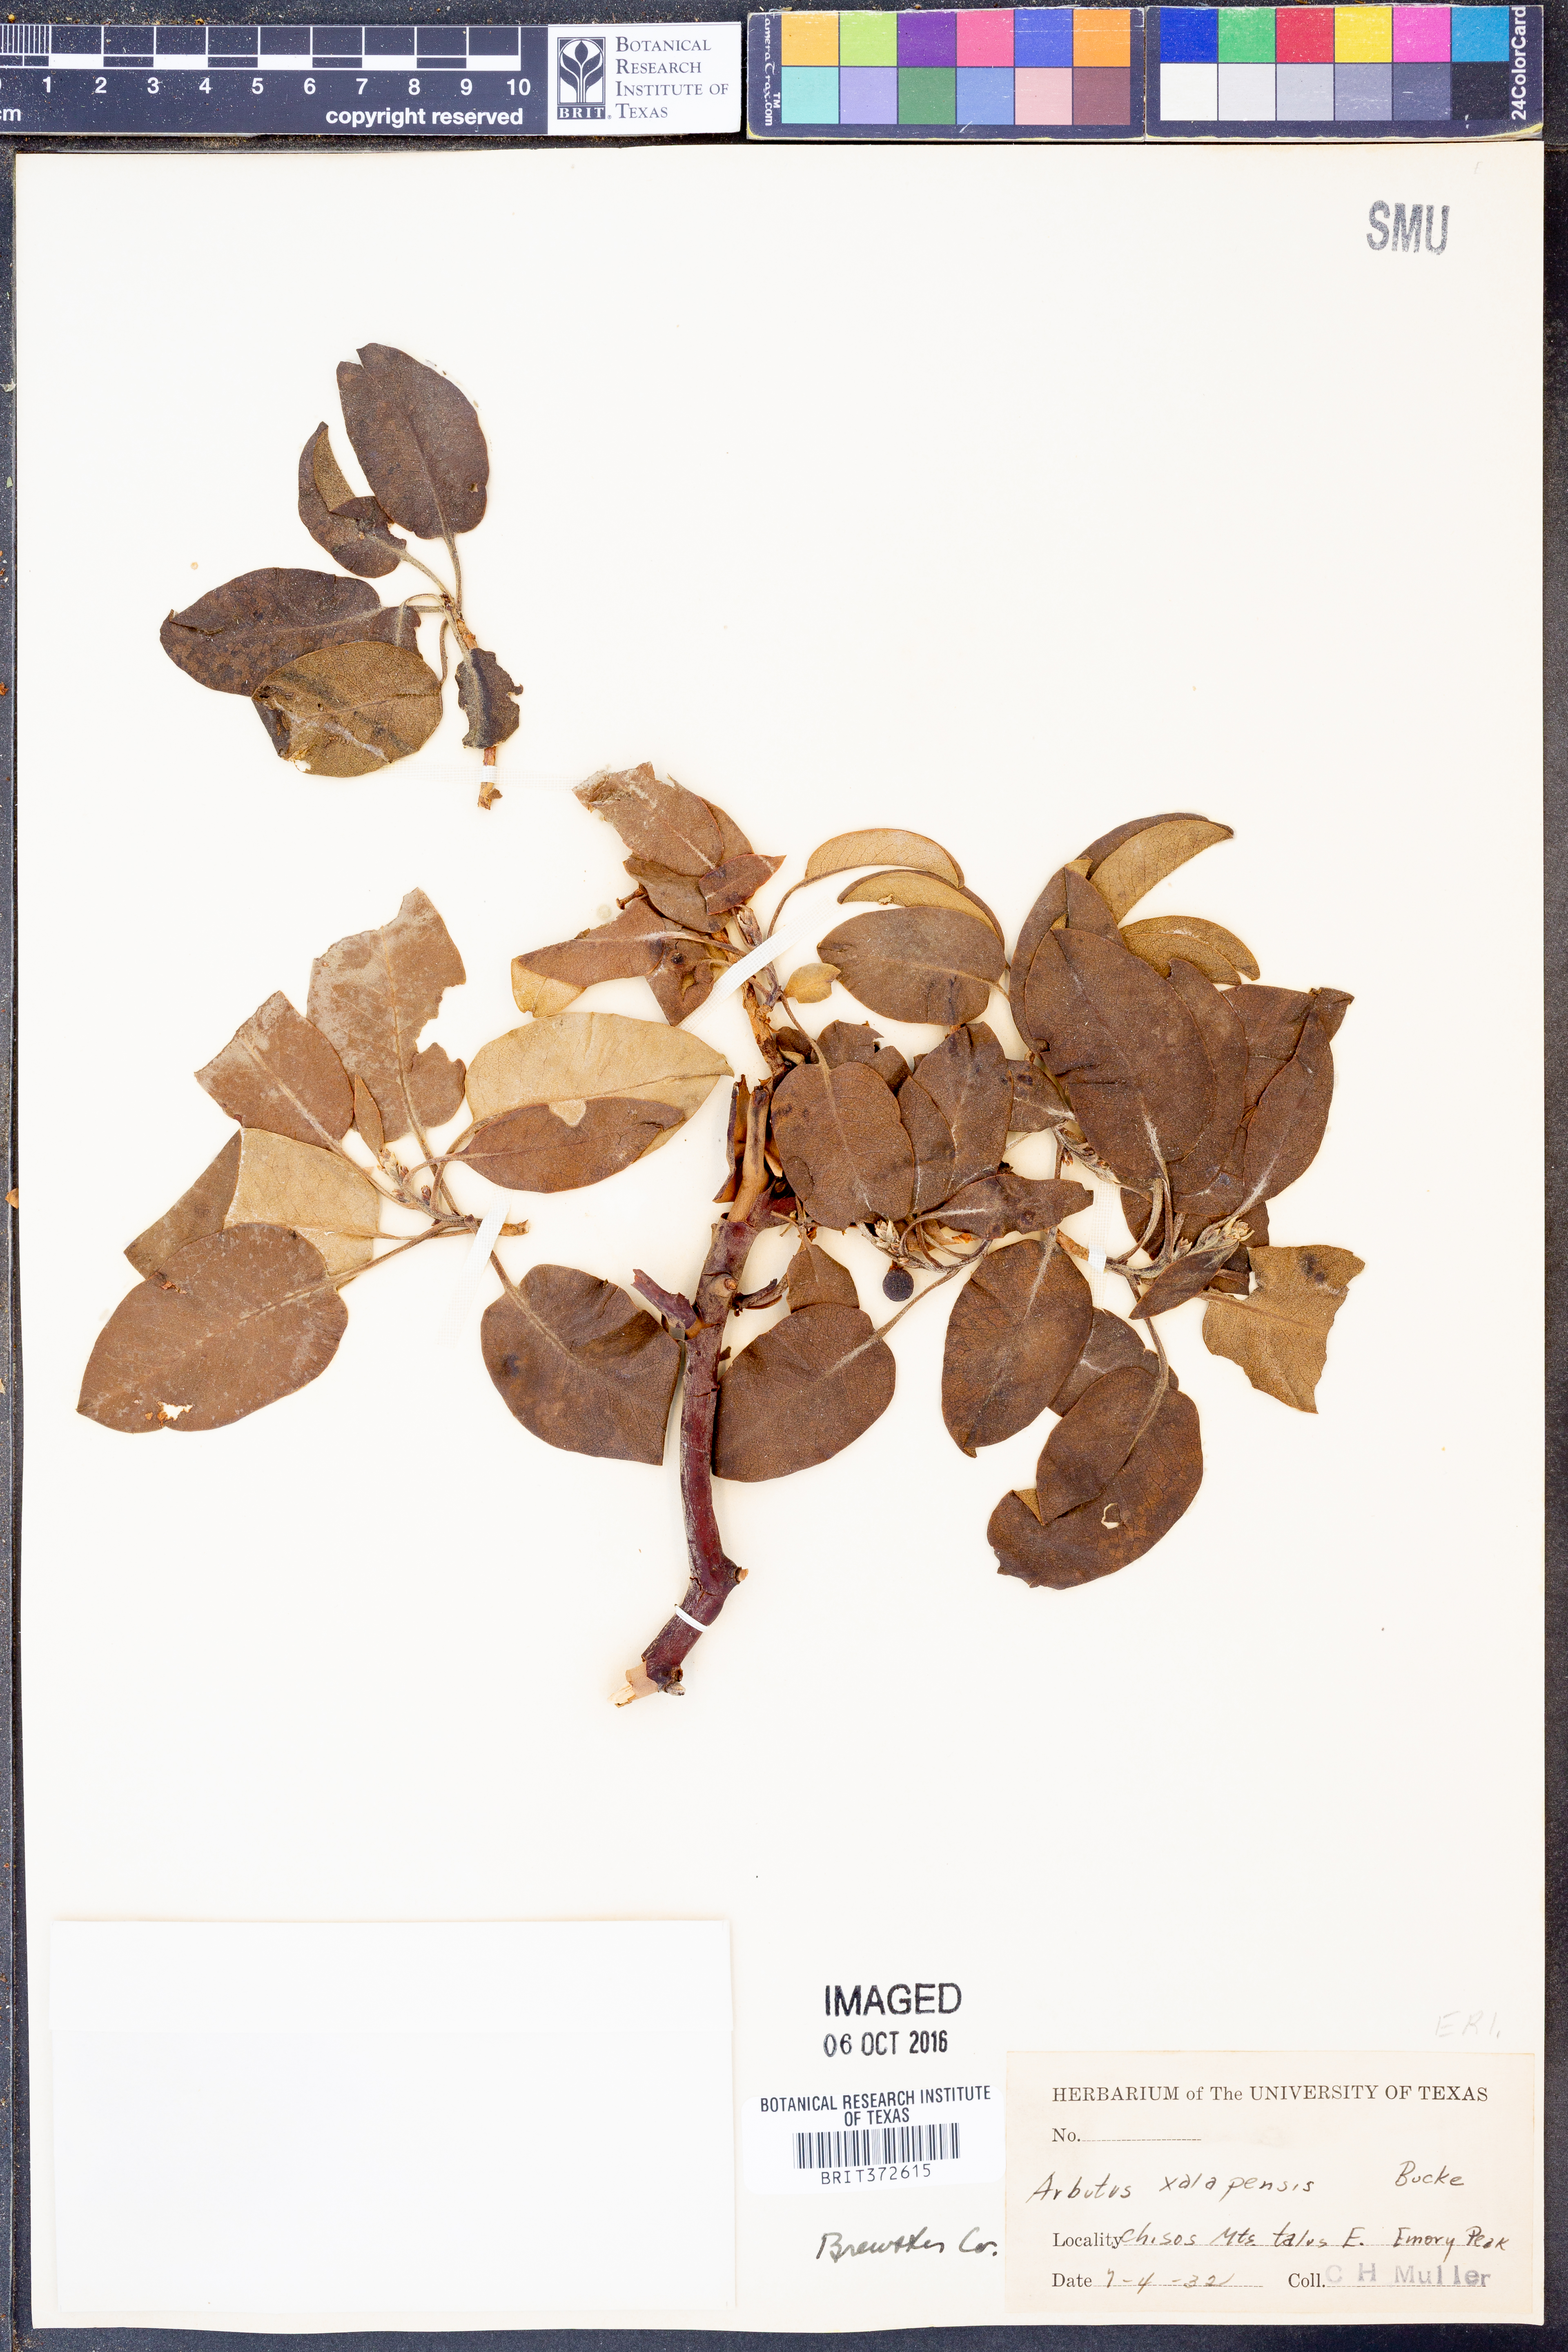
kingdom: Plantae
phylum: Tracheophyta
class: Magnoliopsida
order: Ericales
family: Ericaceae
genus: Arbutus
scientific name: Arbutus xalapensis
